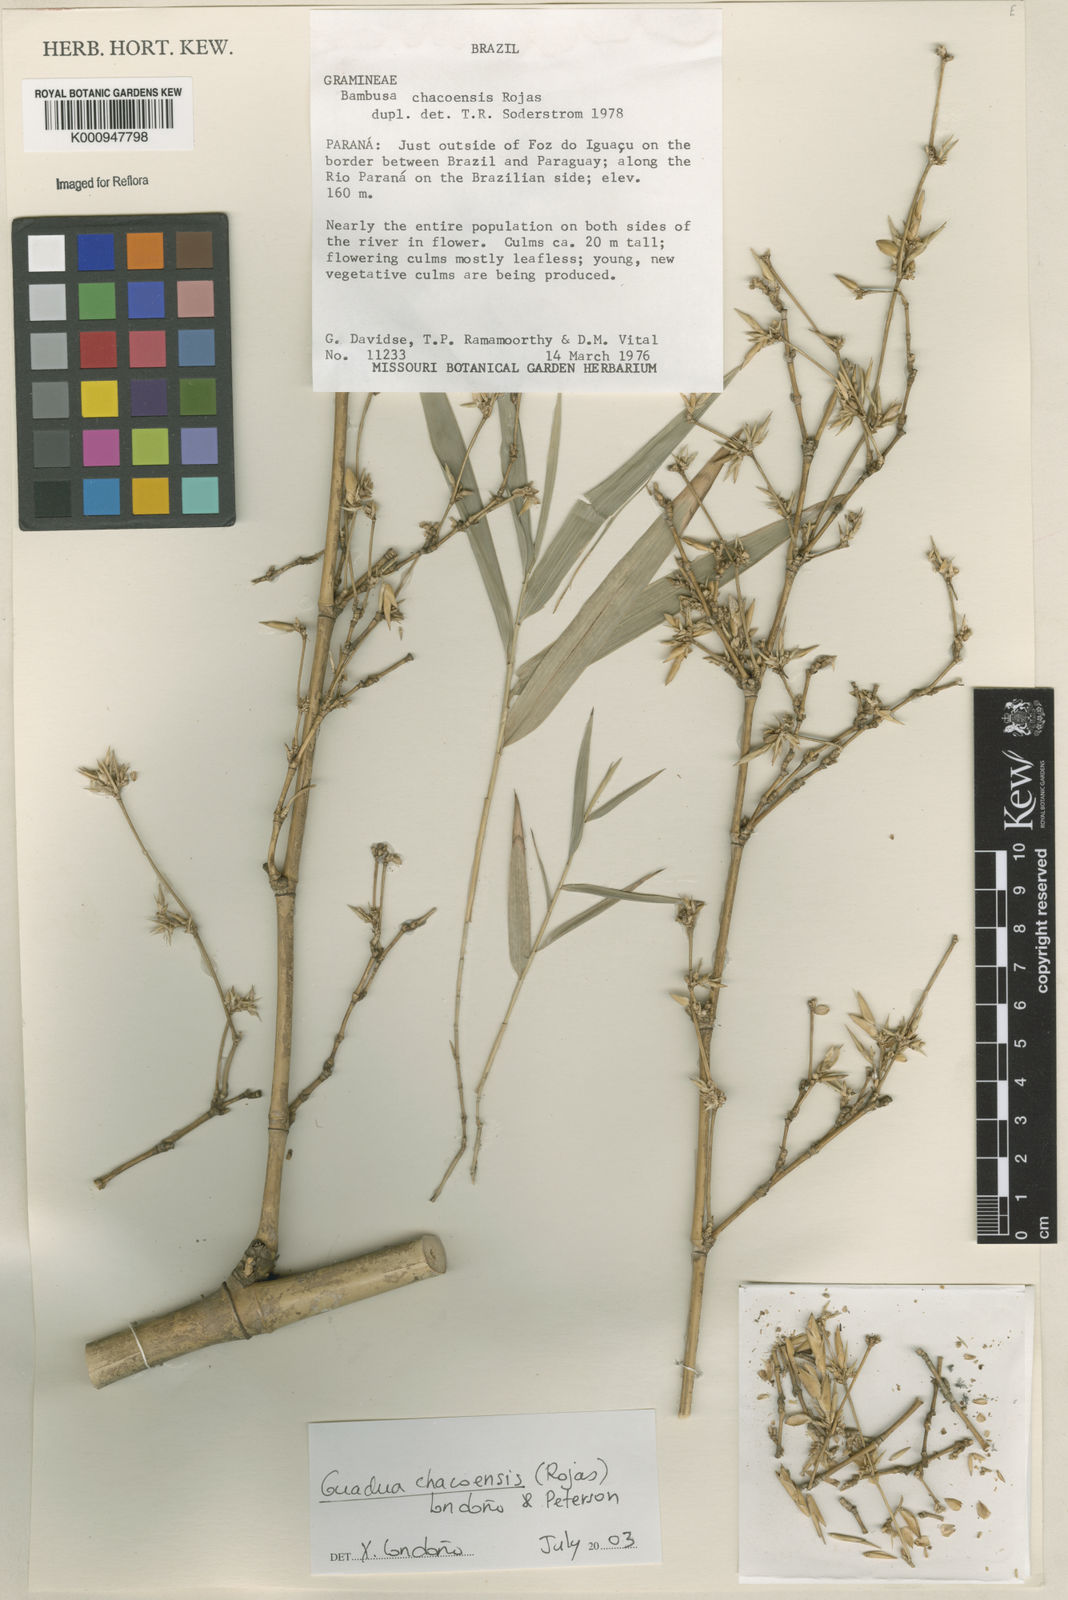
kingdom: Plantae
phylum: Tracheophyta
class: Liliopsida
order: Poales
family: Poaceae
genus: Guadua
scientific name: Guadua
